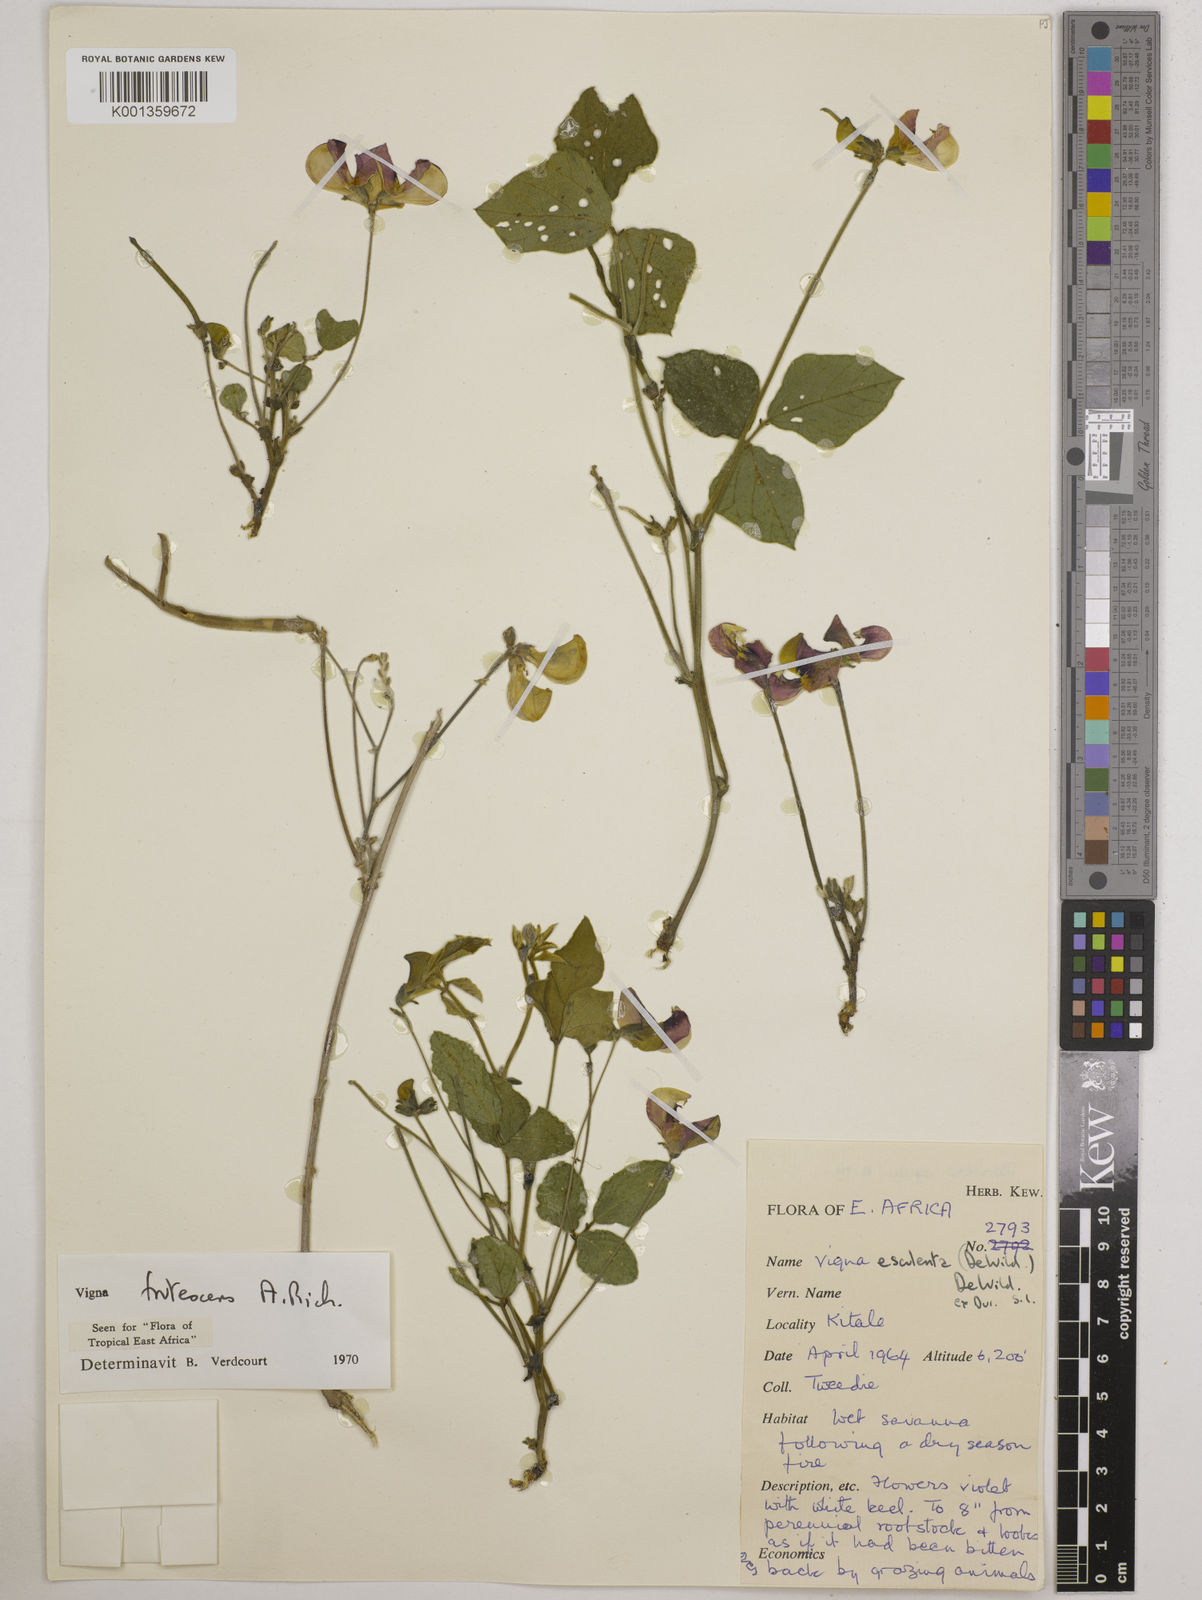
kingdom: Plantae
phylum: Tracheophyta
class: Magnoliopsida
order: Fabales
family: Fabaceae
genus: Vigna
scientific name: Vigna frutescens
